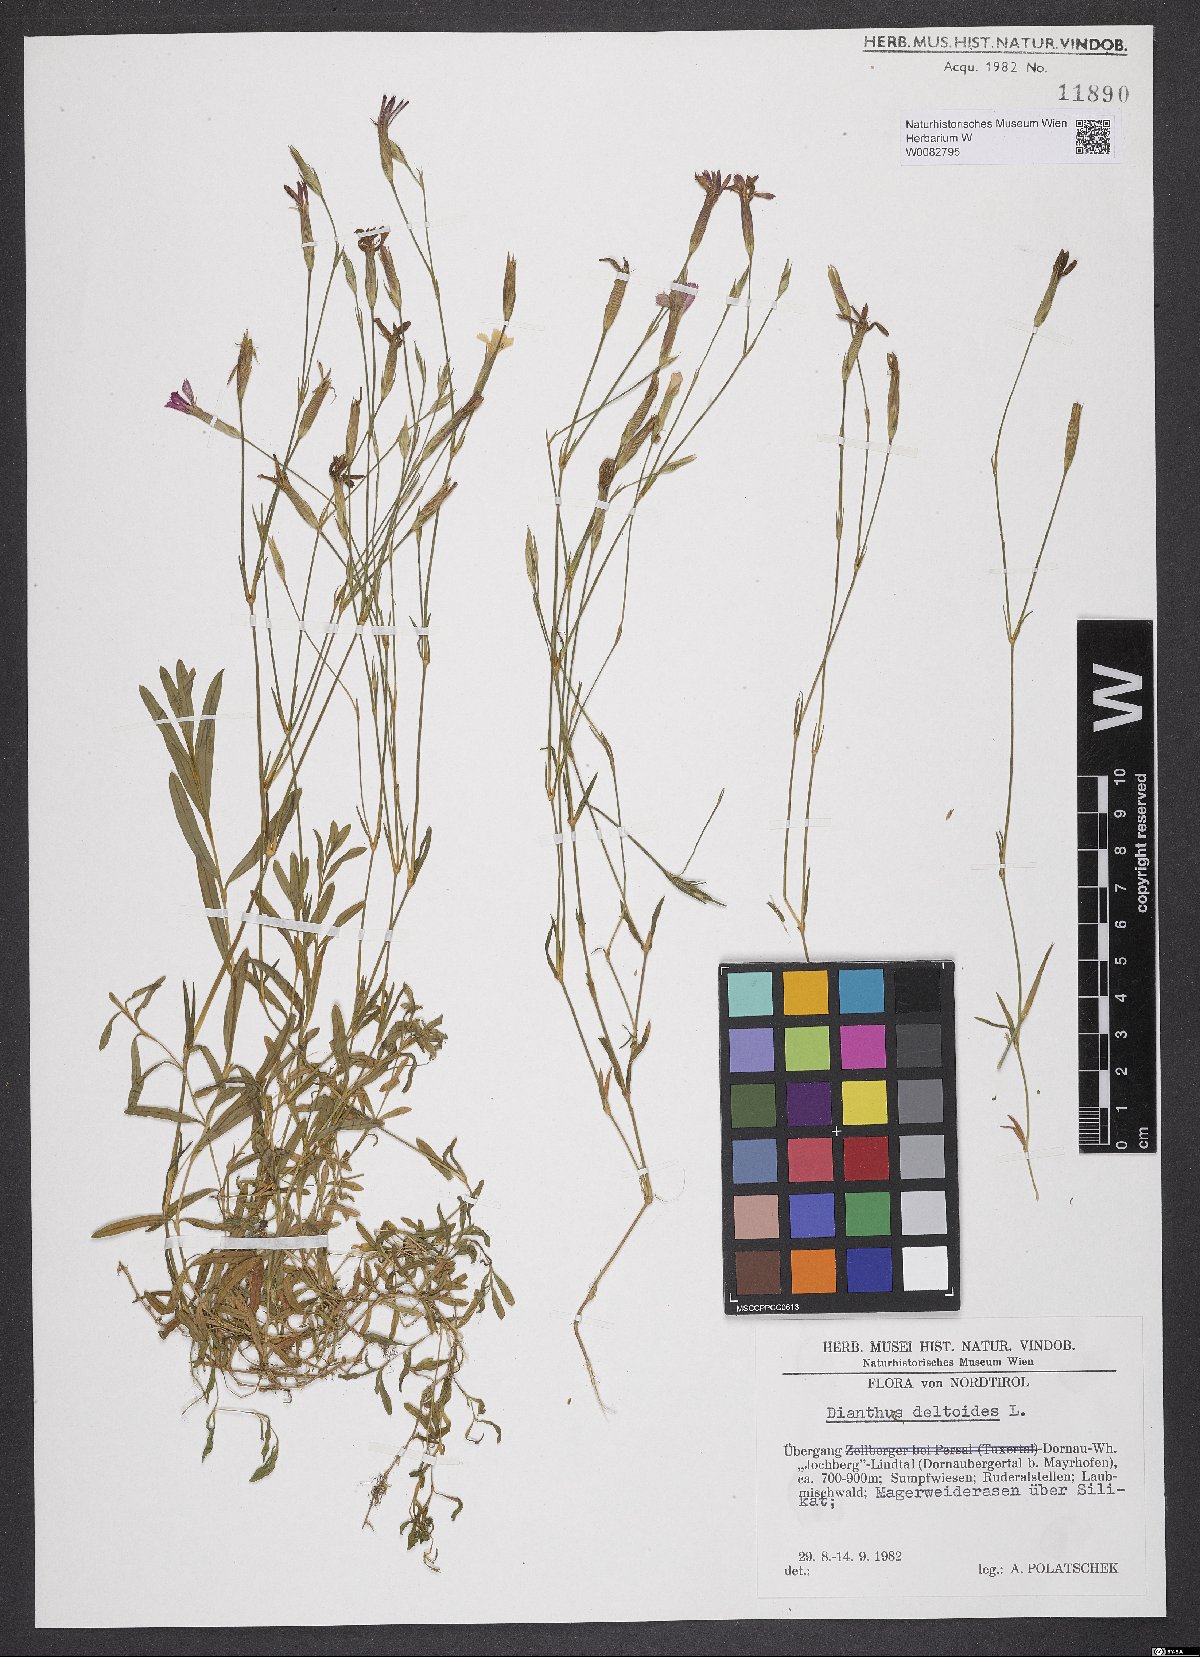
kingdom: Plantae
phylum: Tracheophyta
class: Magnoliopsida
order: Caryophyllales
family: Caryophyllaceae
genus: Dianthus
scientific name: Dianthus deltoides
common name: Maiden pink
